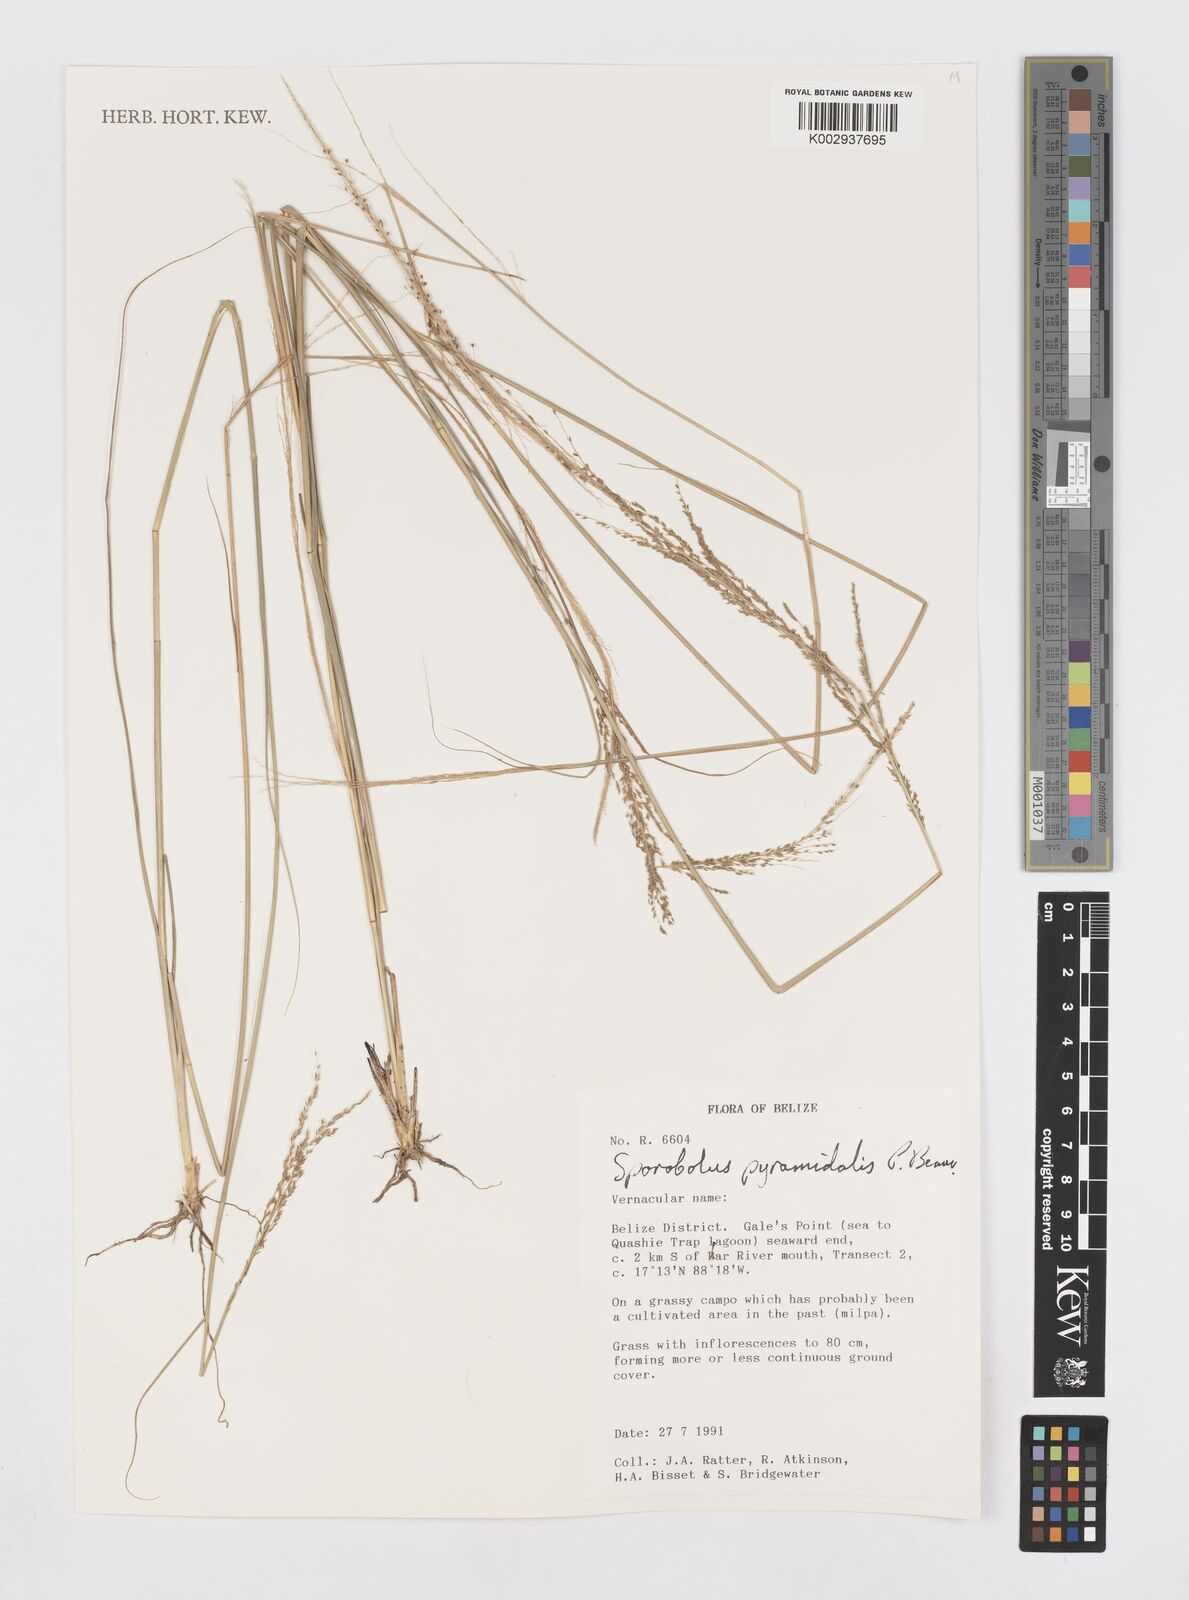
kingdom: Plantae
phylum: Tracheophyta
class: Liliopsida
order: Poales
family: Poaceae
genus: Sporobolus
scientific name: Sporobolus pyramidalis
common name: West indian dropseed
